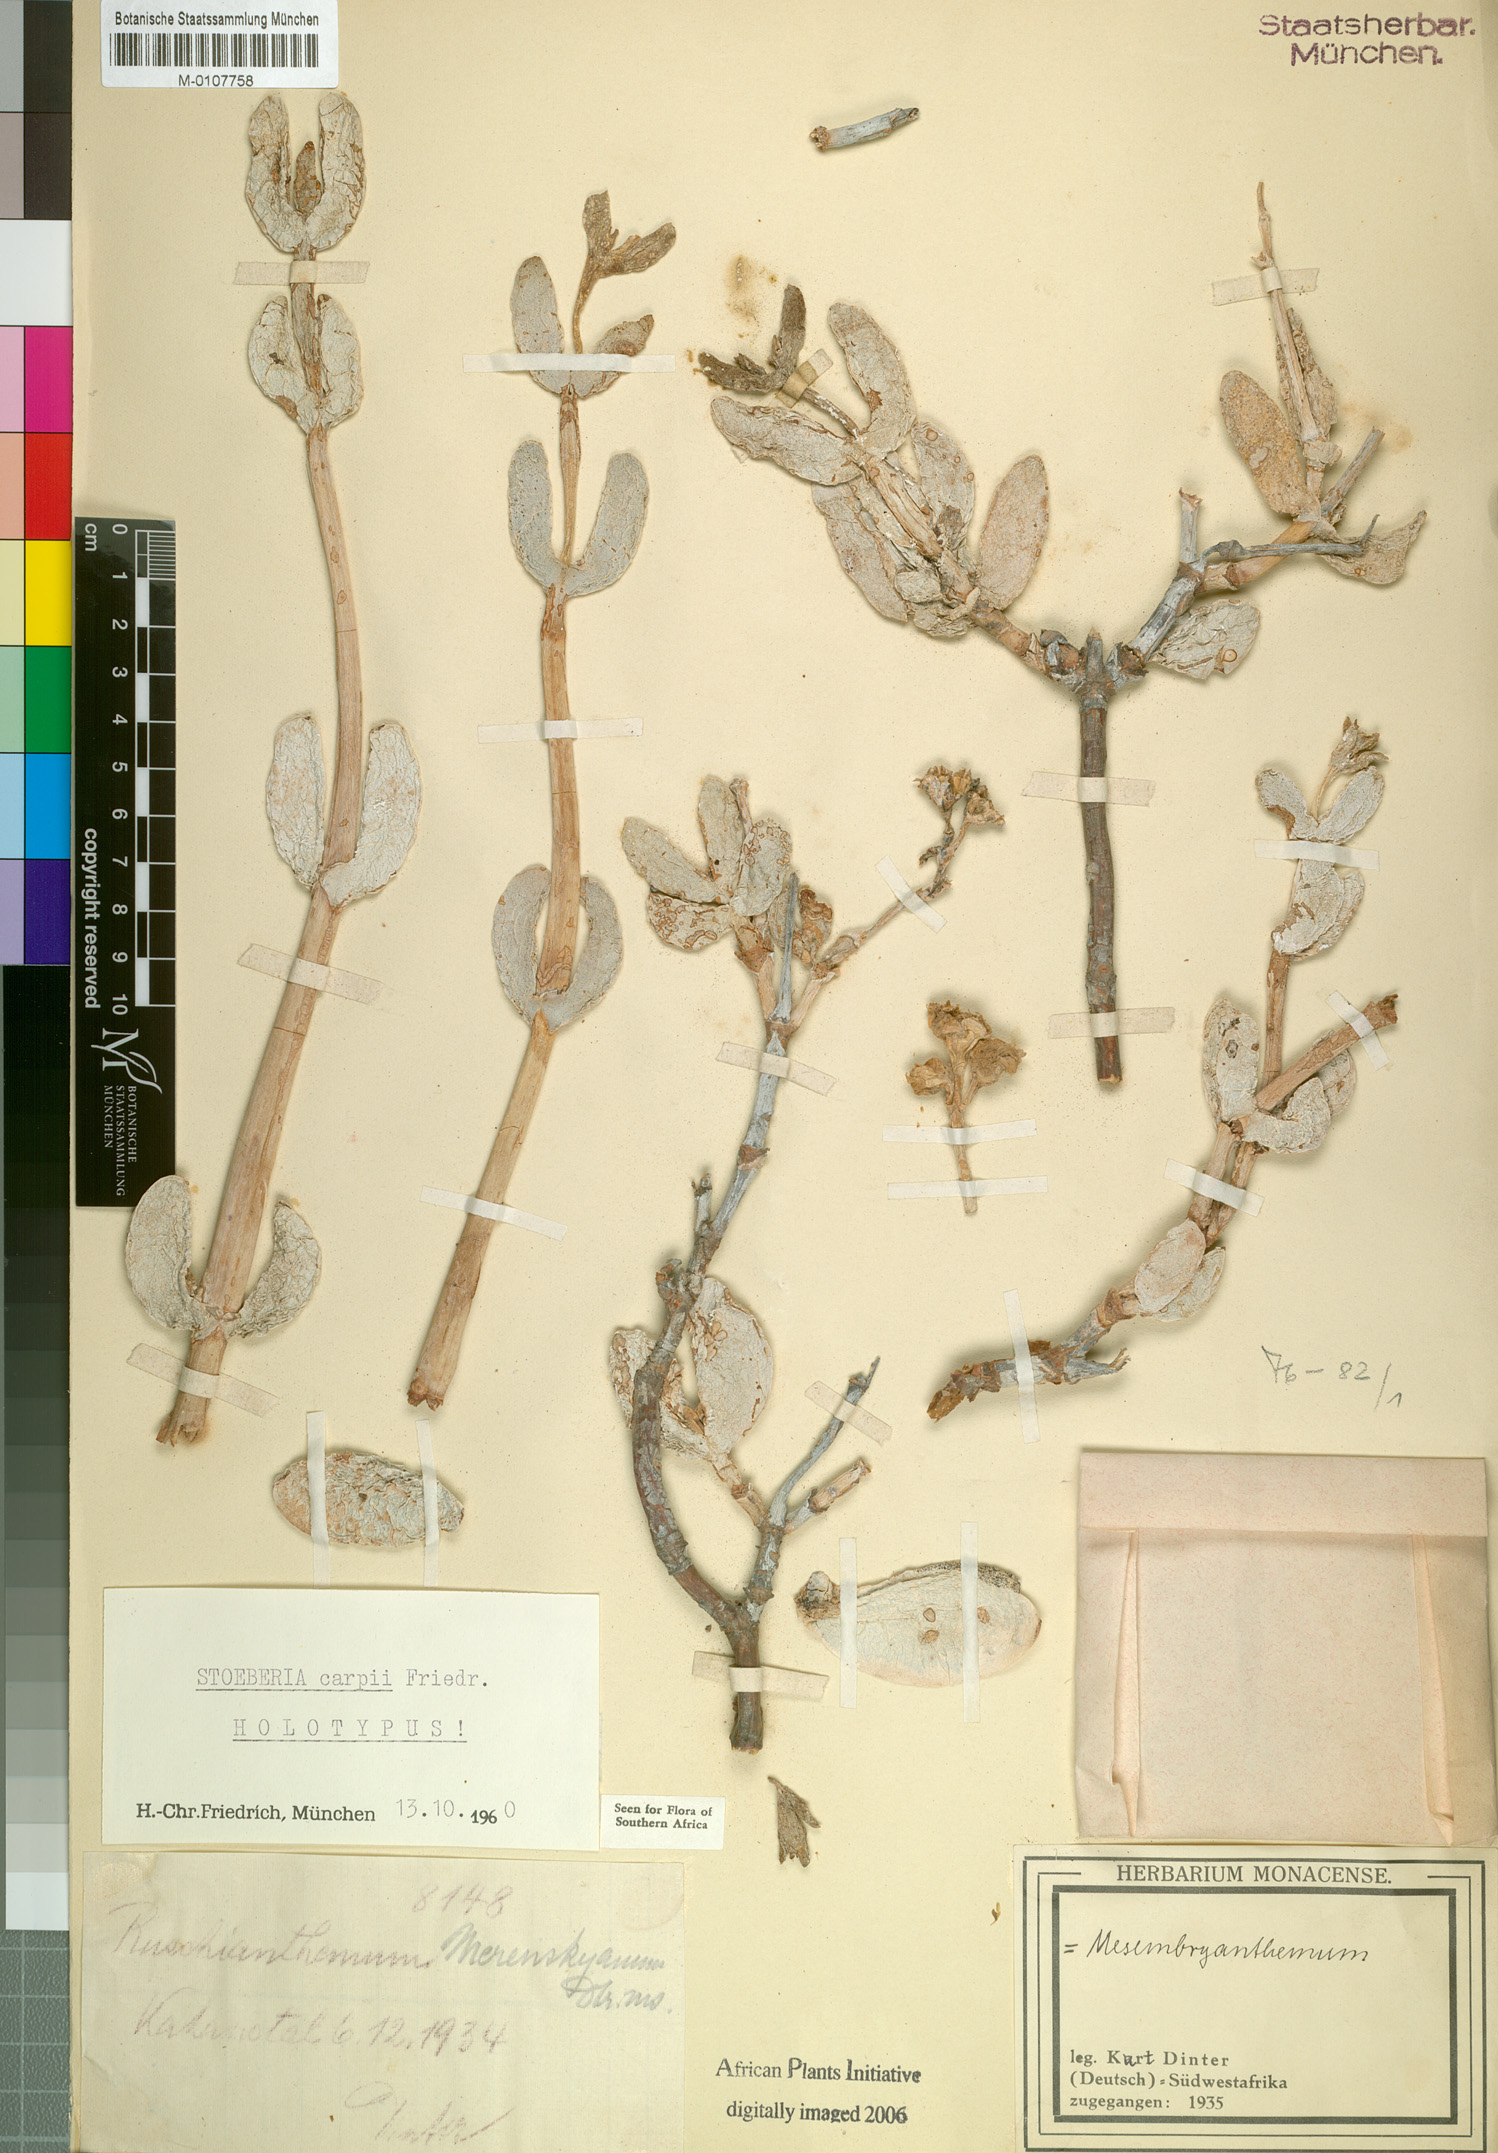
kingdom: Plantae
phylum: Tracheophyta
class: Magnoliopsida
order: Caryophyllales
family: Aizoaceae
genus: Stoeberia
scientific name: Stoeberia carpii
